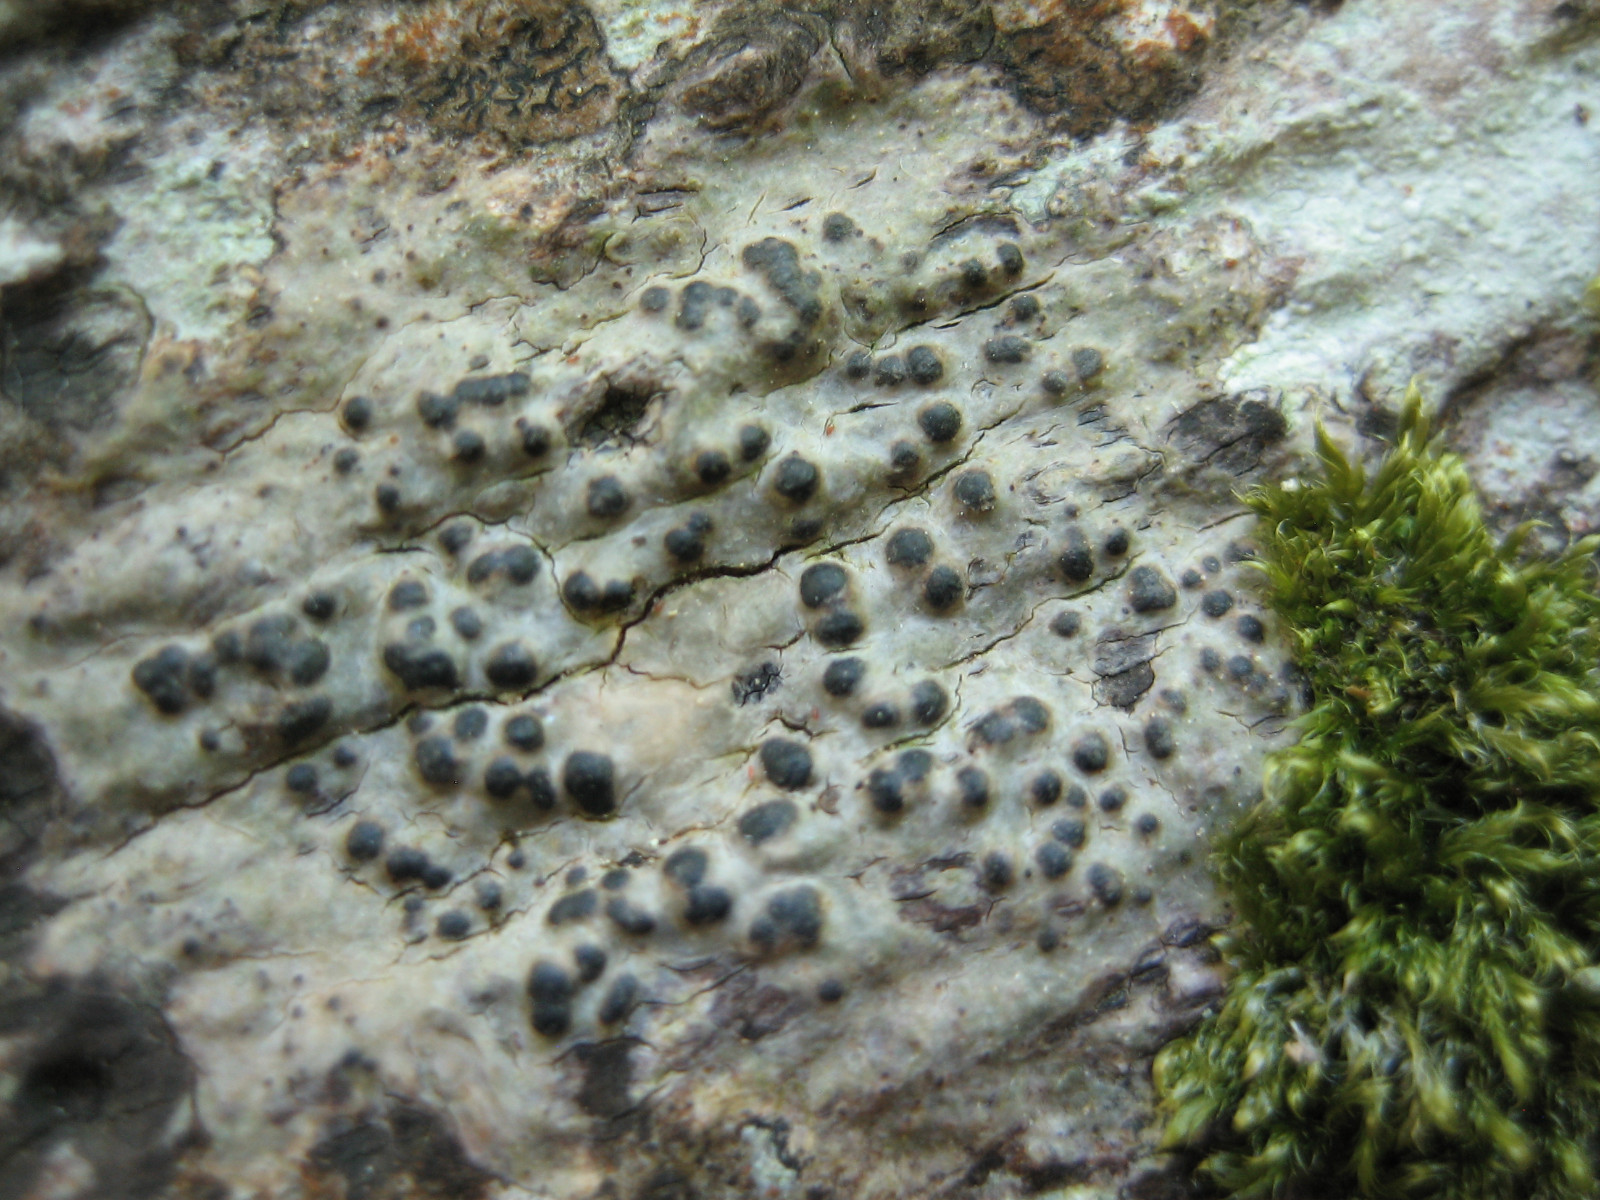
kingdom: Fungi
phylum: Ascomycota
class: Eurotiomycetes
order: Pyrenulales
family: Pyrenulaceae
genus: Pyrenula
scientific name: Pyrenula nitida
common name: glinsende kernelav
